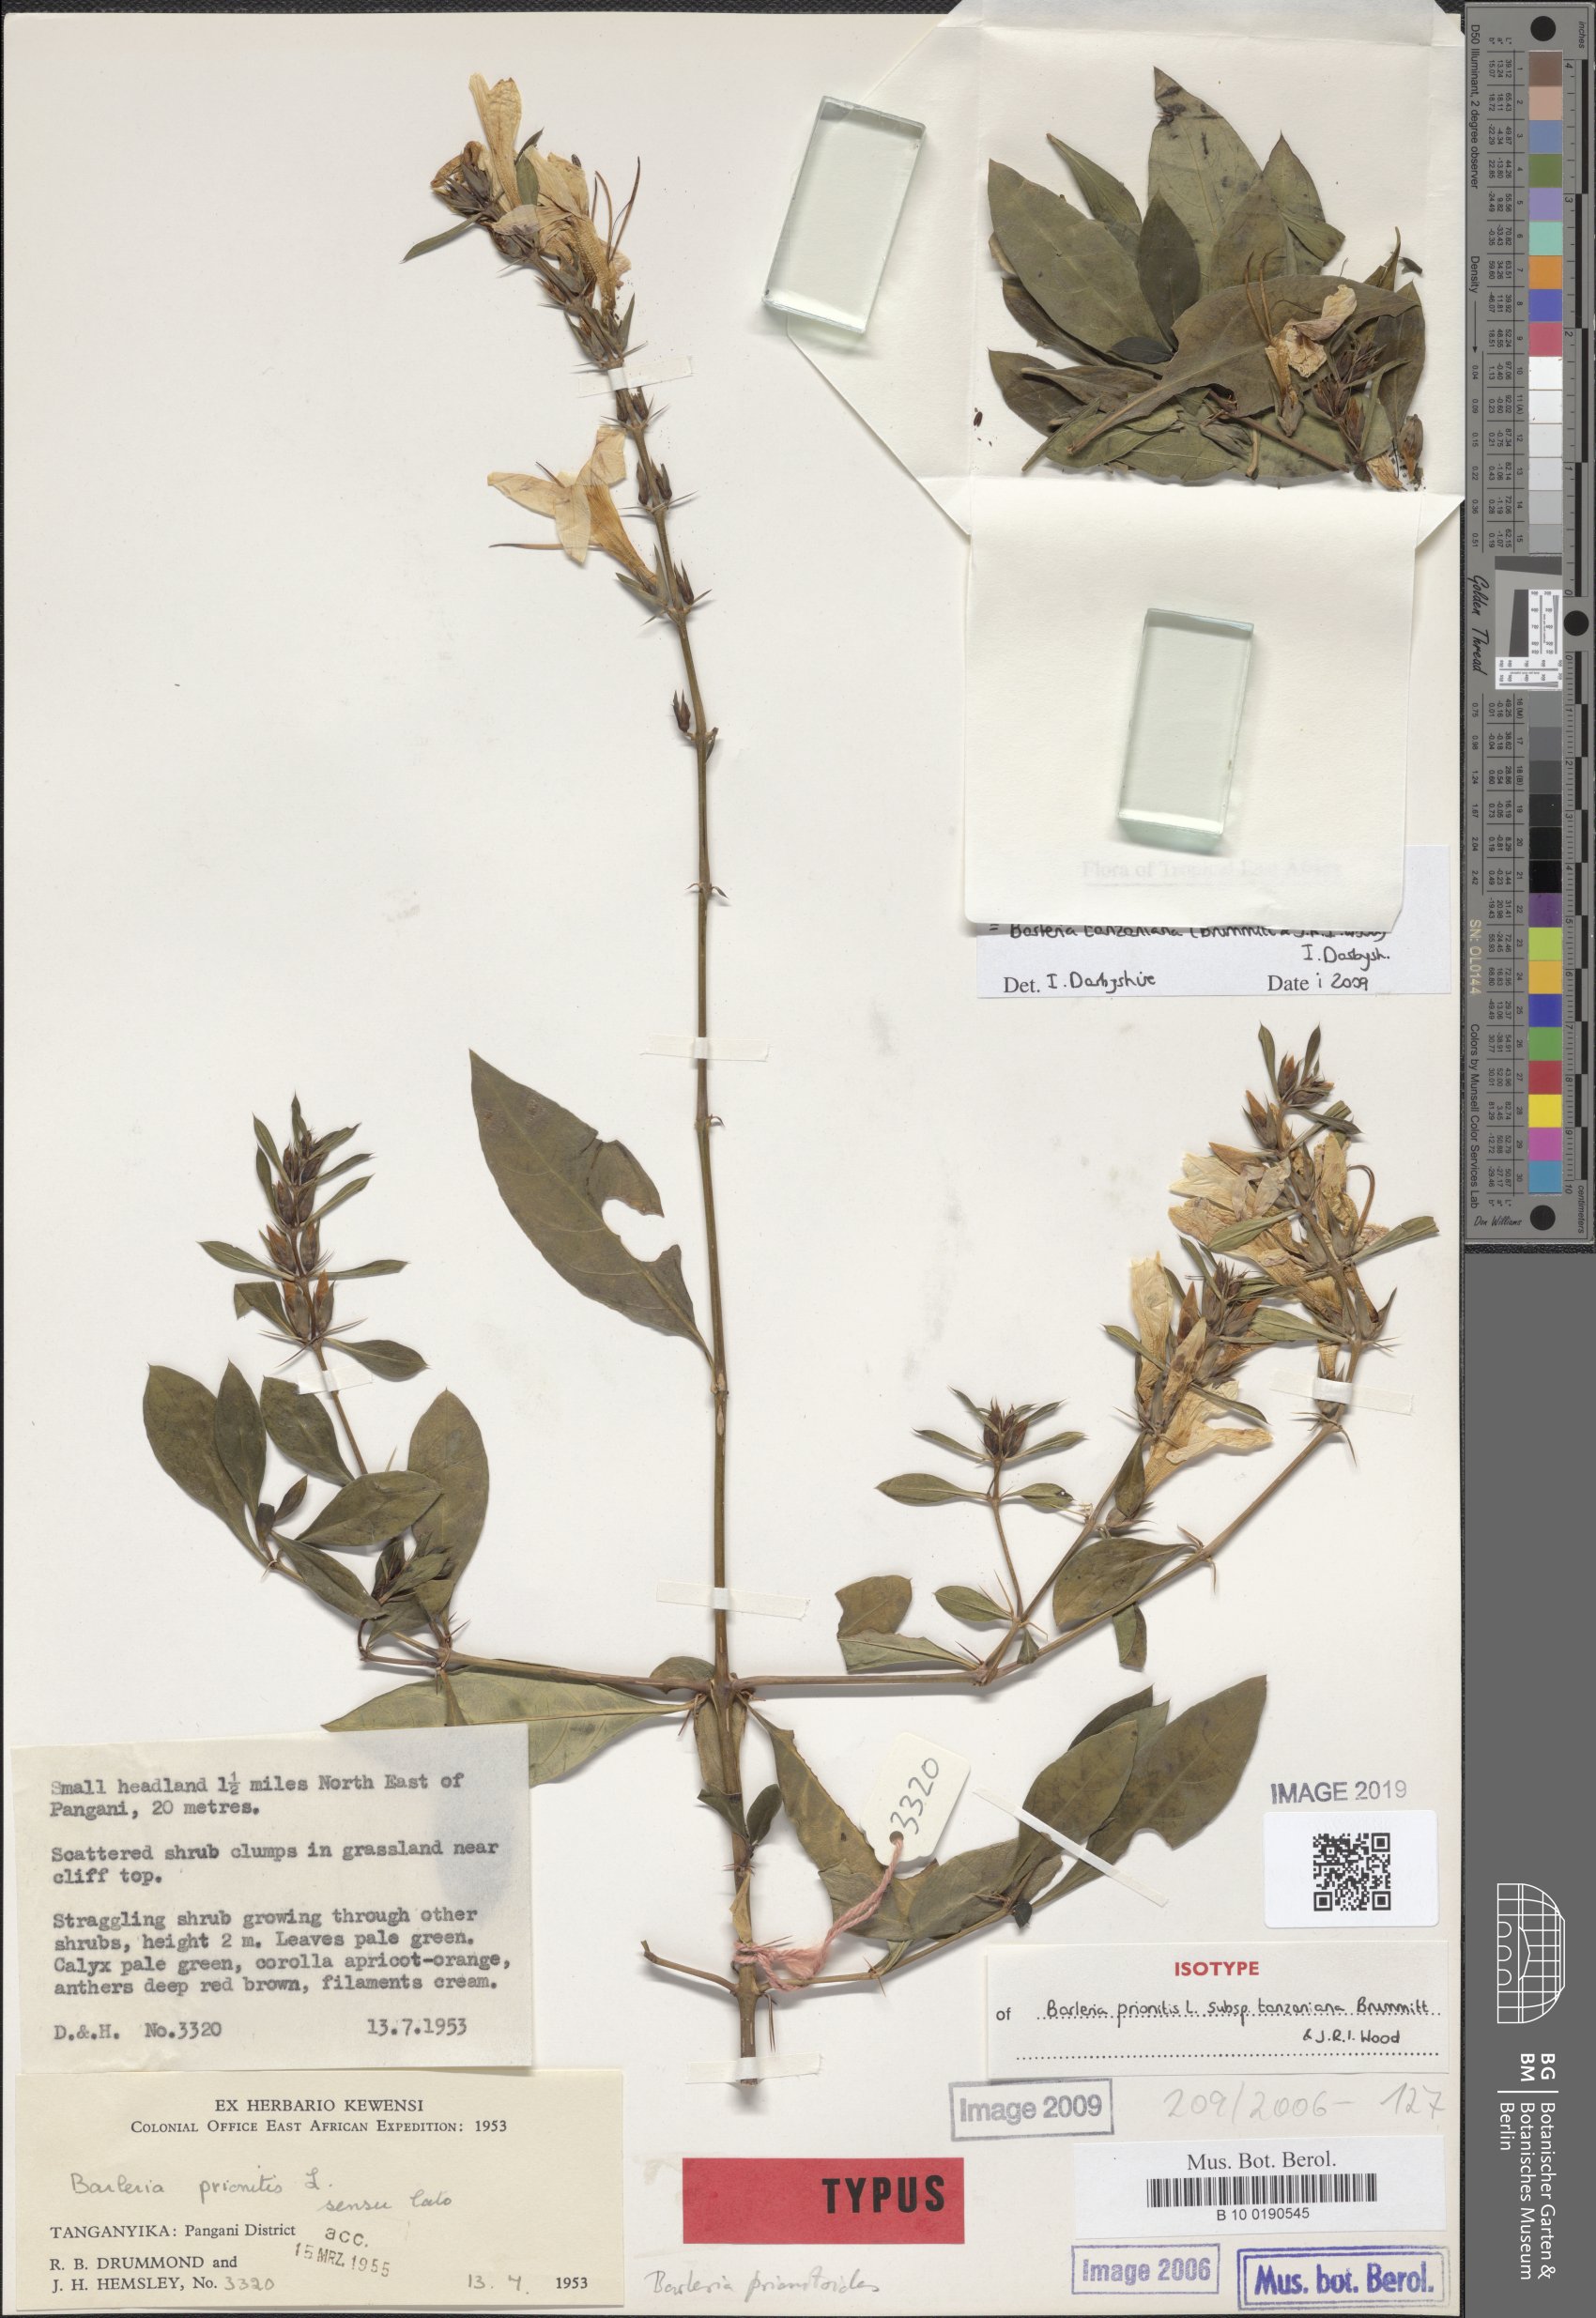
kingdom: Plantae
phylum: Tracheophyta
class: Magnoliopsida
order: Lamiales
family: Acanthaceae
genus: Barleria
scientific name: Barleria tanzaniana
